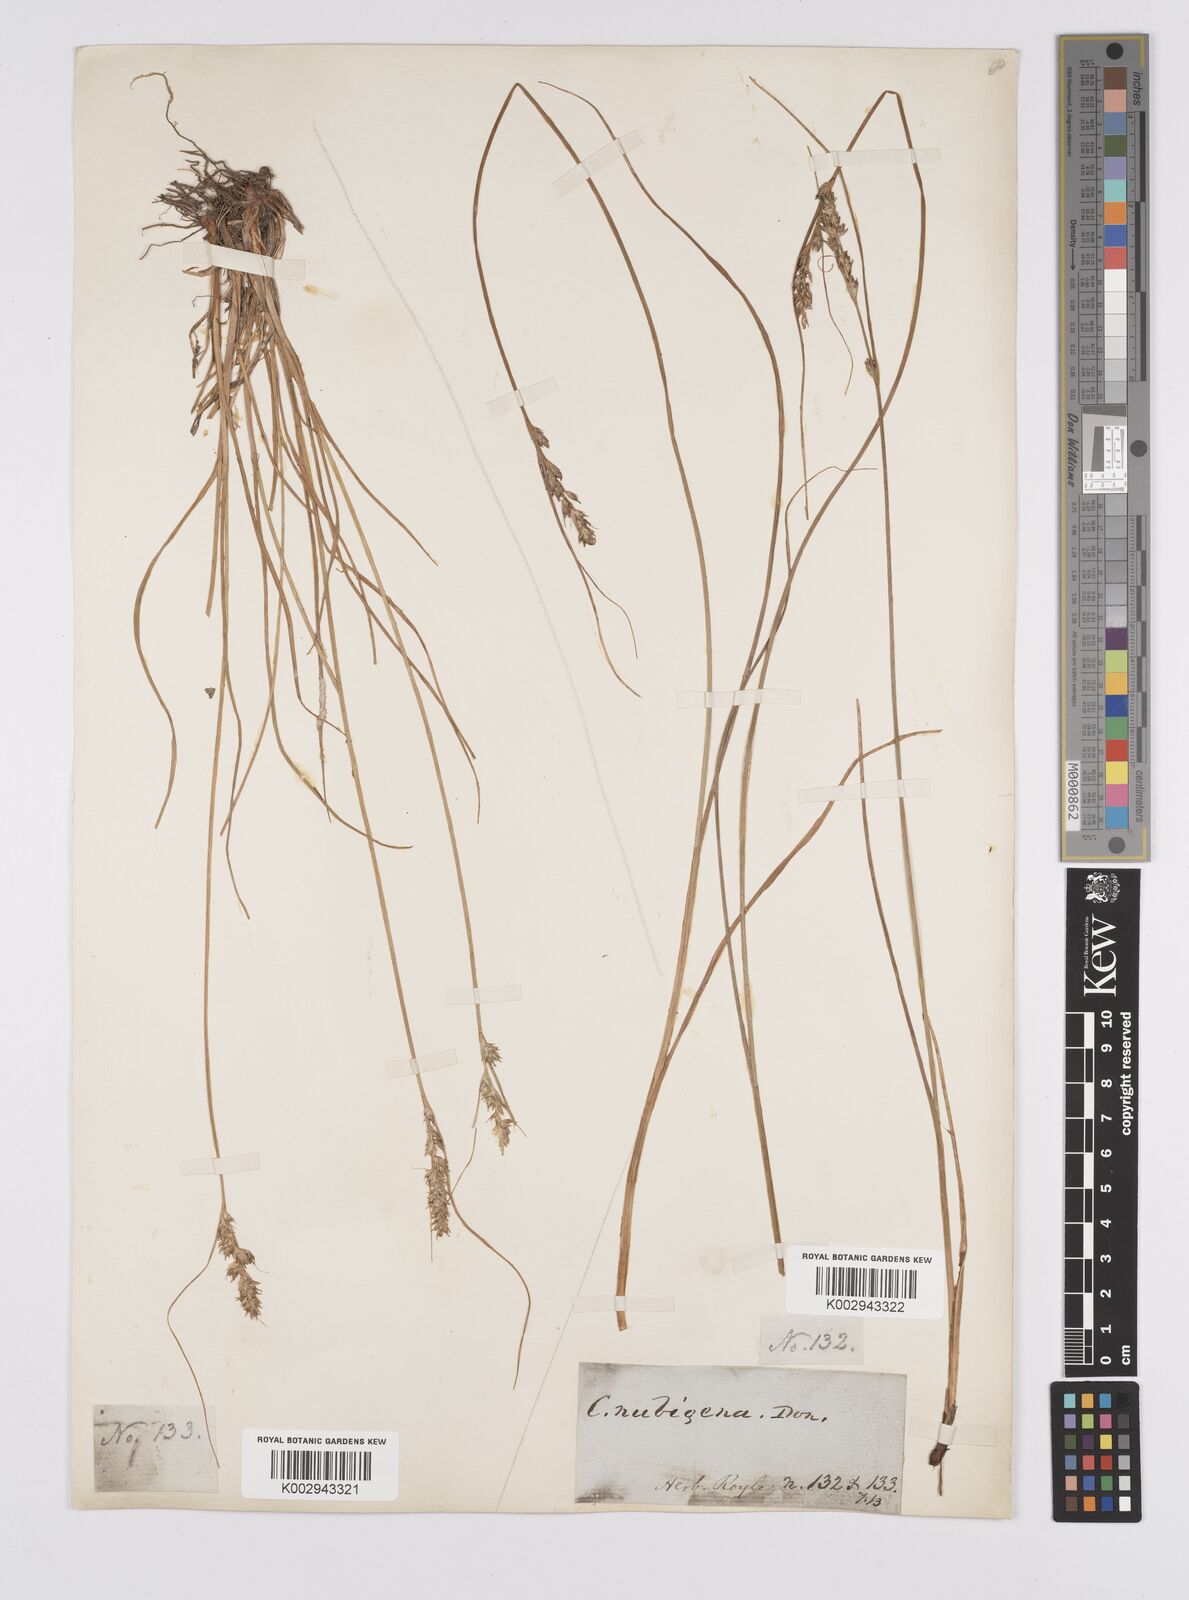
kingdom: Plantae
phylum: Tracheophyta
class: Liliopsida
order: Poales
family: Cyperaceae
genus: Carex
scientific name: Carex nubigena
